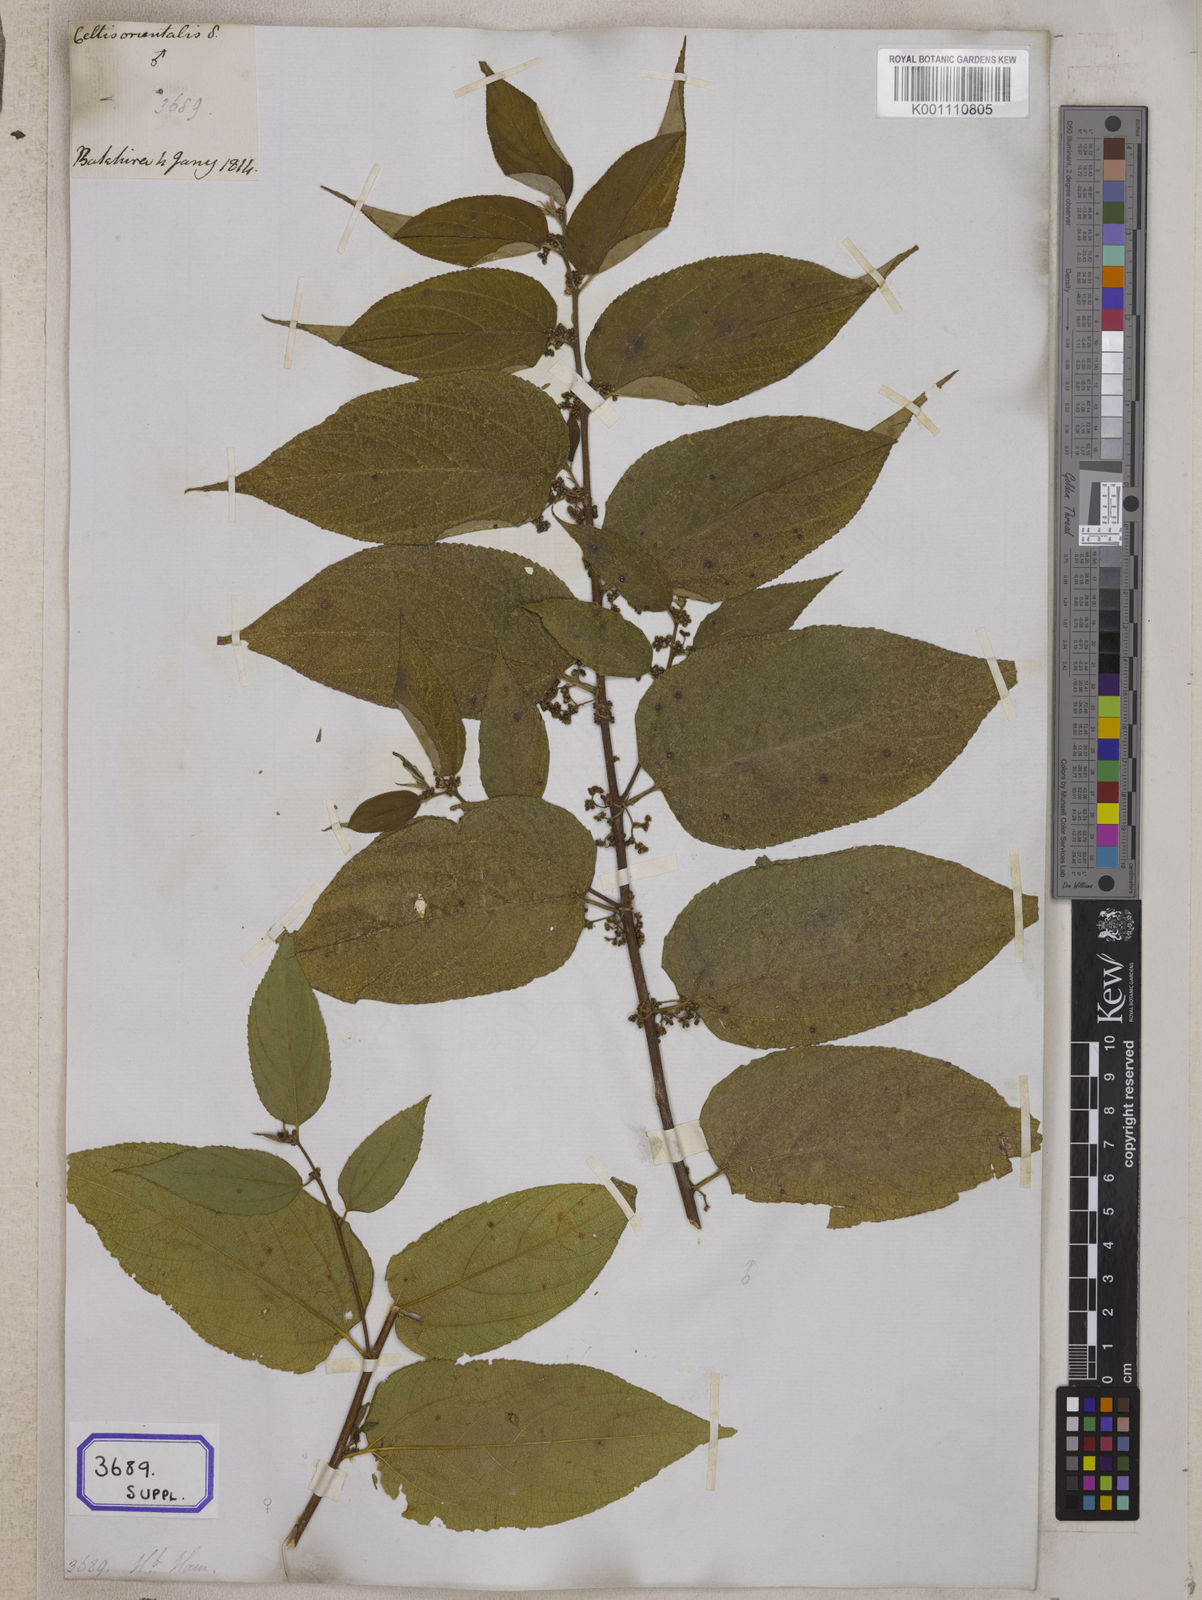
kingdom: Plantae
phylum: Tracheophyta
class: Magnoliopsida
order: Rosales
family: Cannabaceae
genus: Trema
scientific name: Trema orientale
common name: Indian charcoal tree
